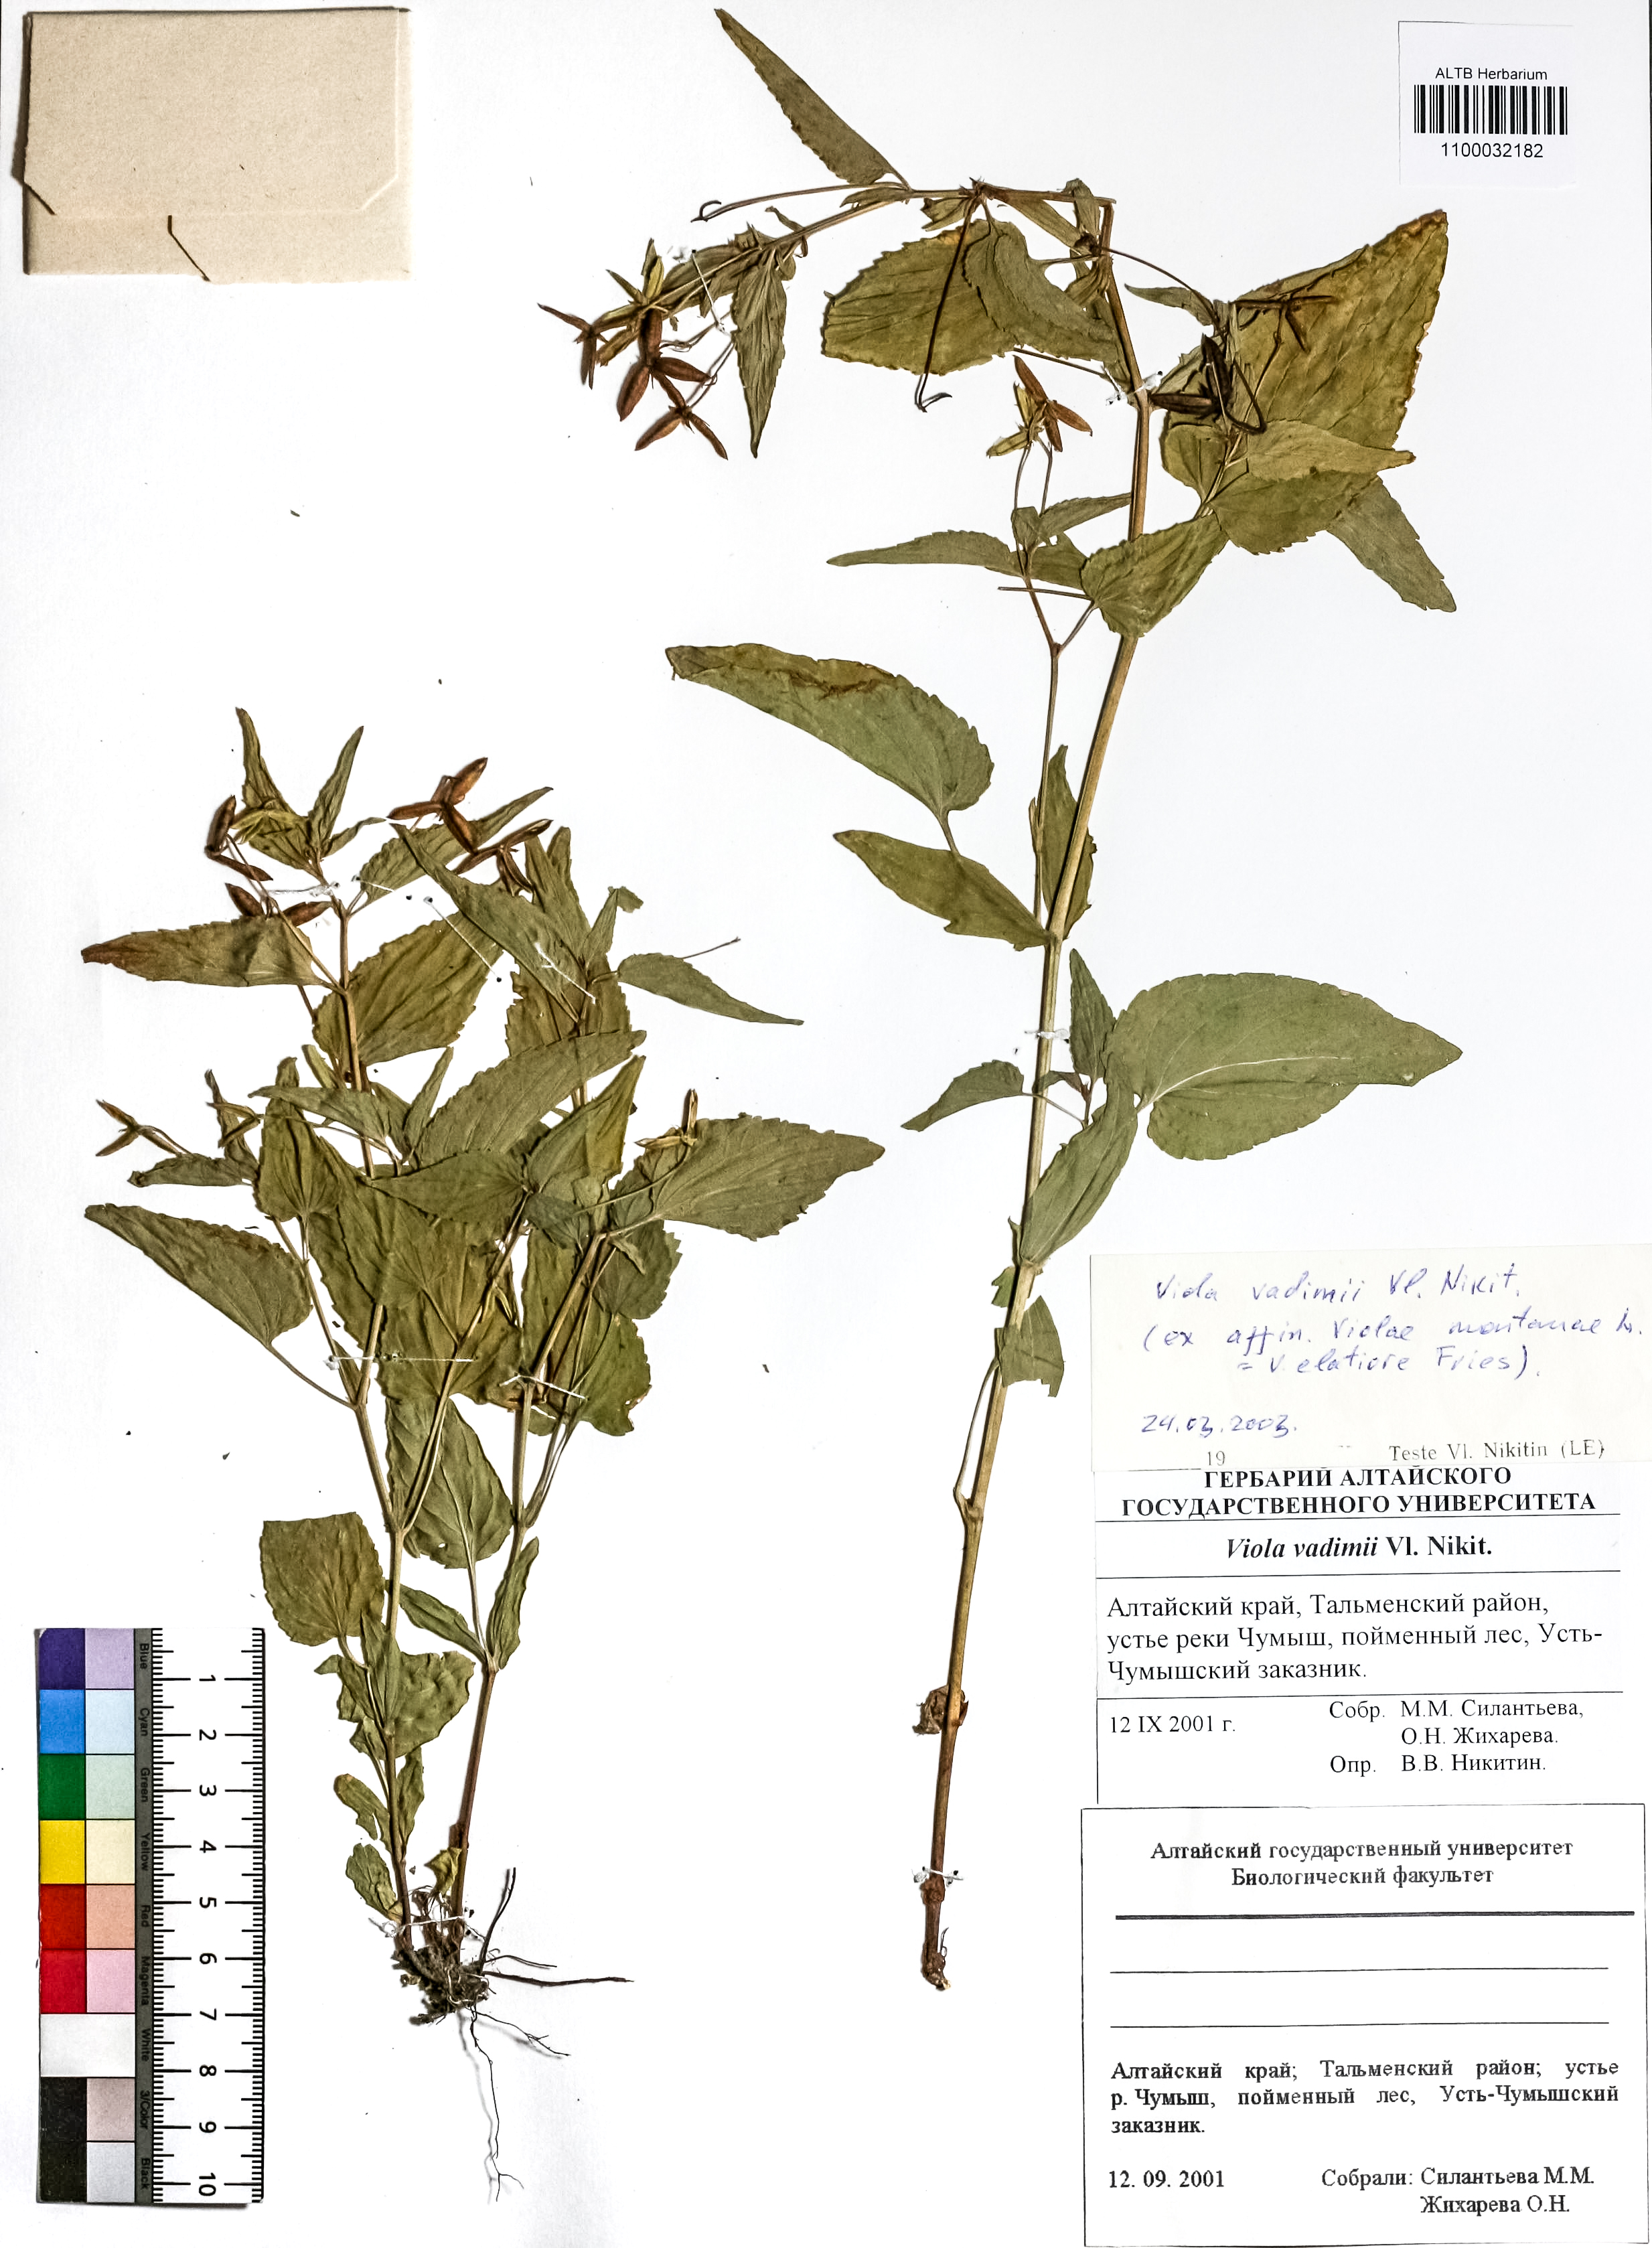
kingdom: Plantae
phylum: Tracheophyta
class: Magnoliopsida
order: Malpighiales
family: Violaceae
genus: Viola
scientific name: Viola elatior
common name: Tall violet
